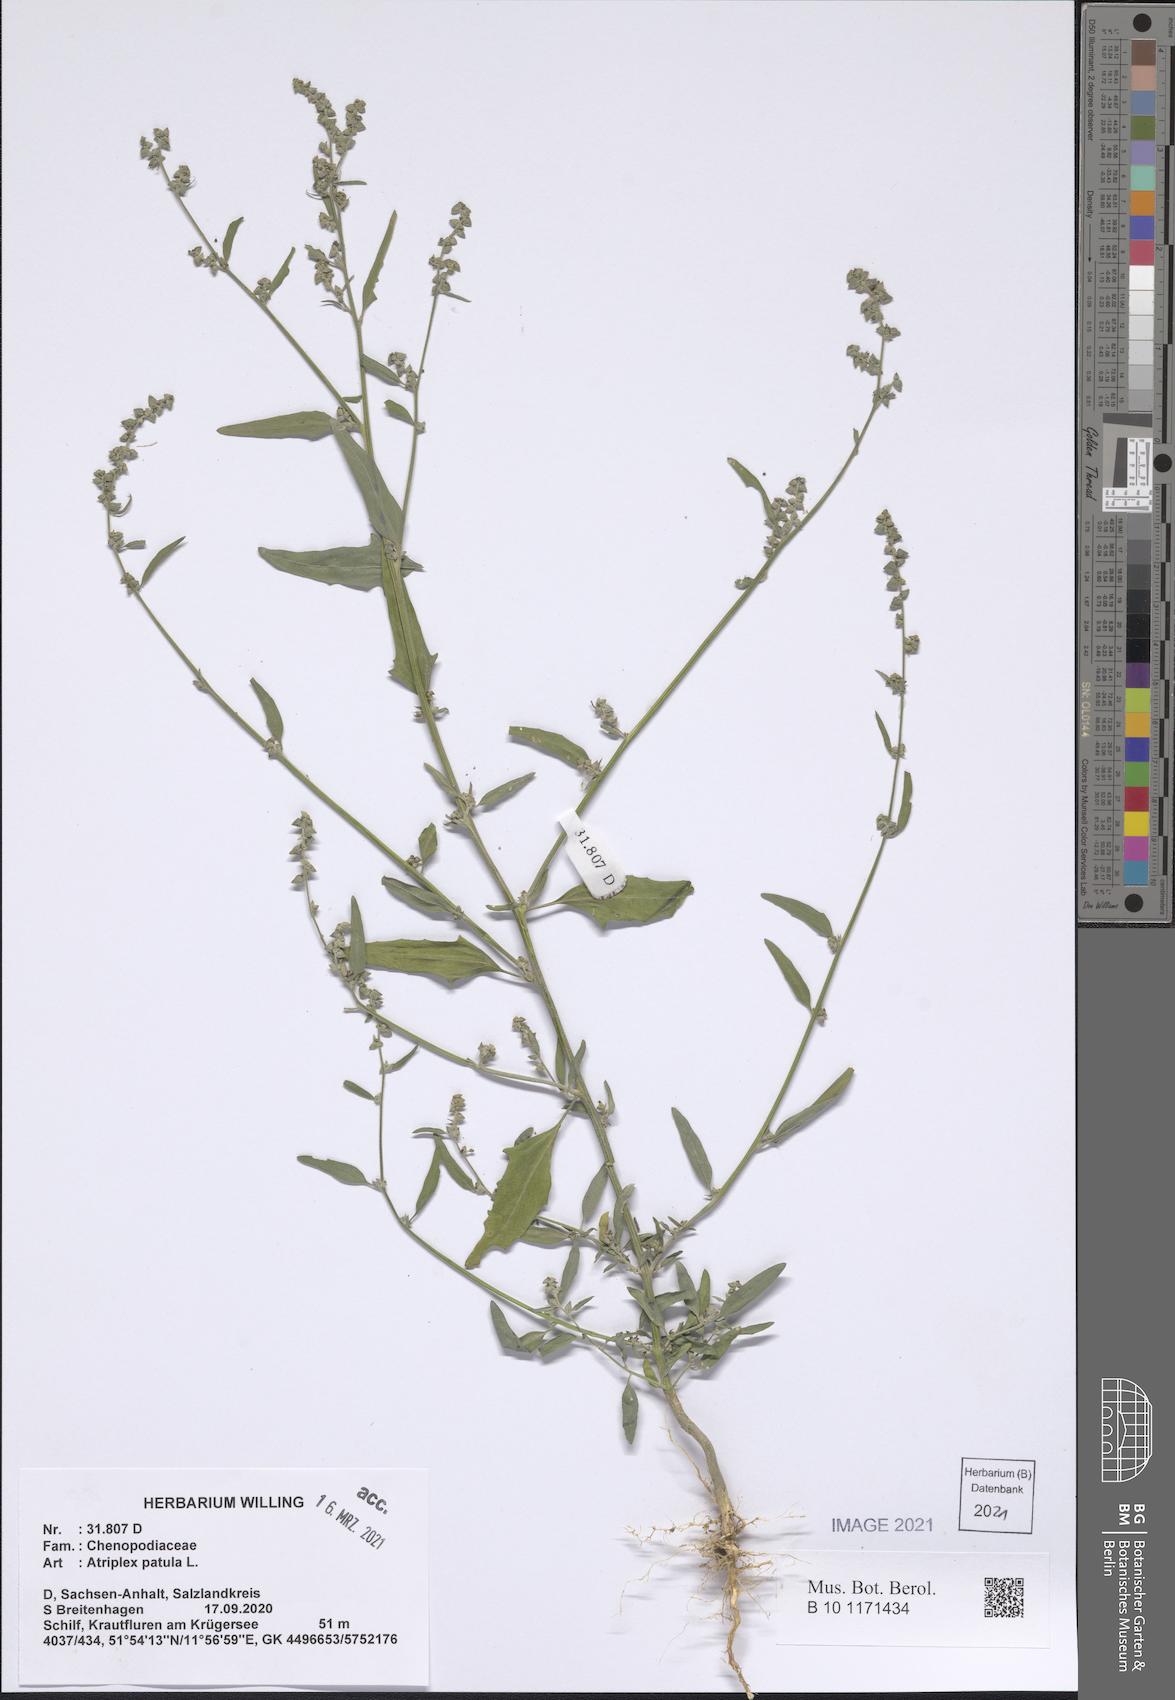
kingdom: Plantae
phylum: Tracheophyta
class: Magnoliopsida
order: Caryophyllales
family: Amaranthaceae
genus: Atriplex
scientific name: Atriplex patula
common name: Common orache
